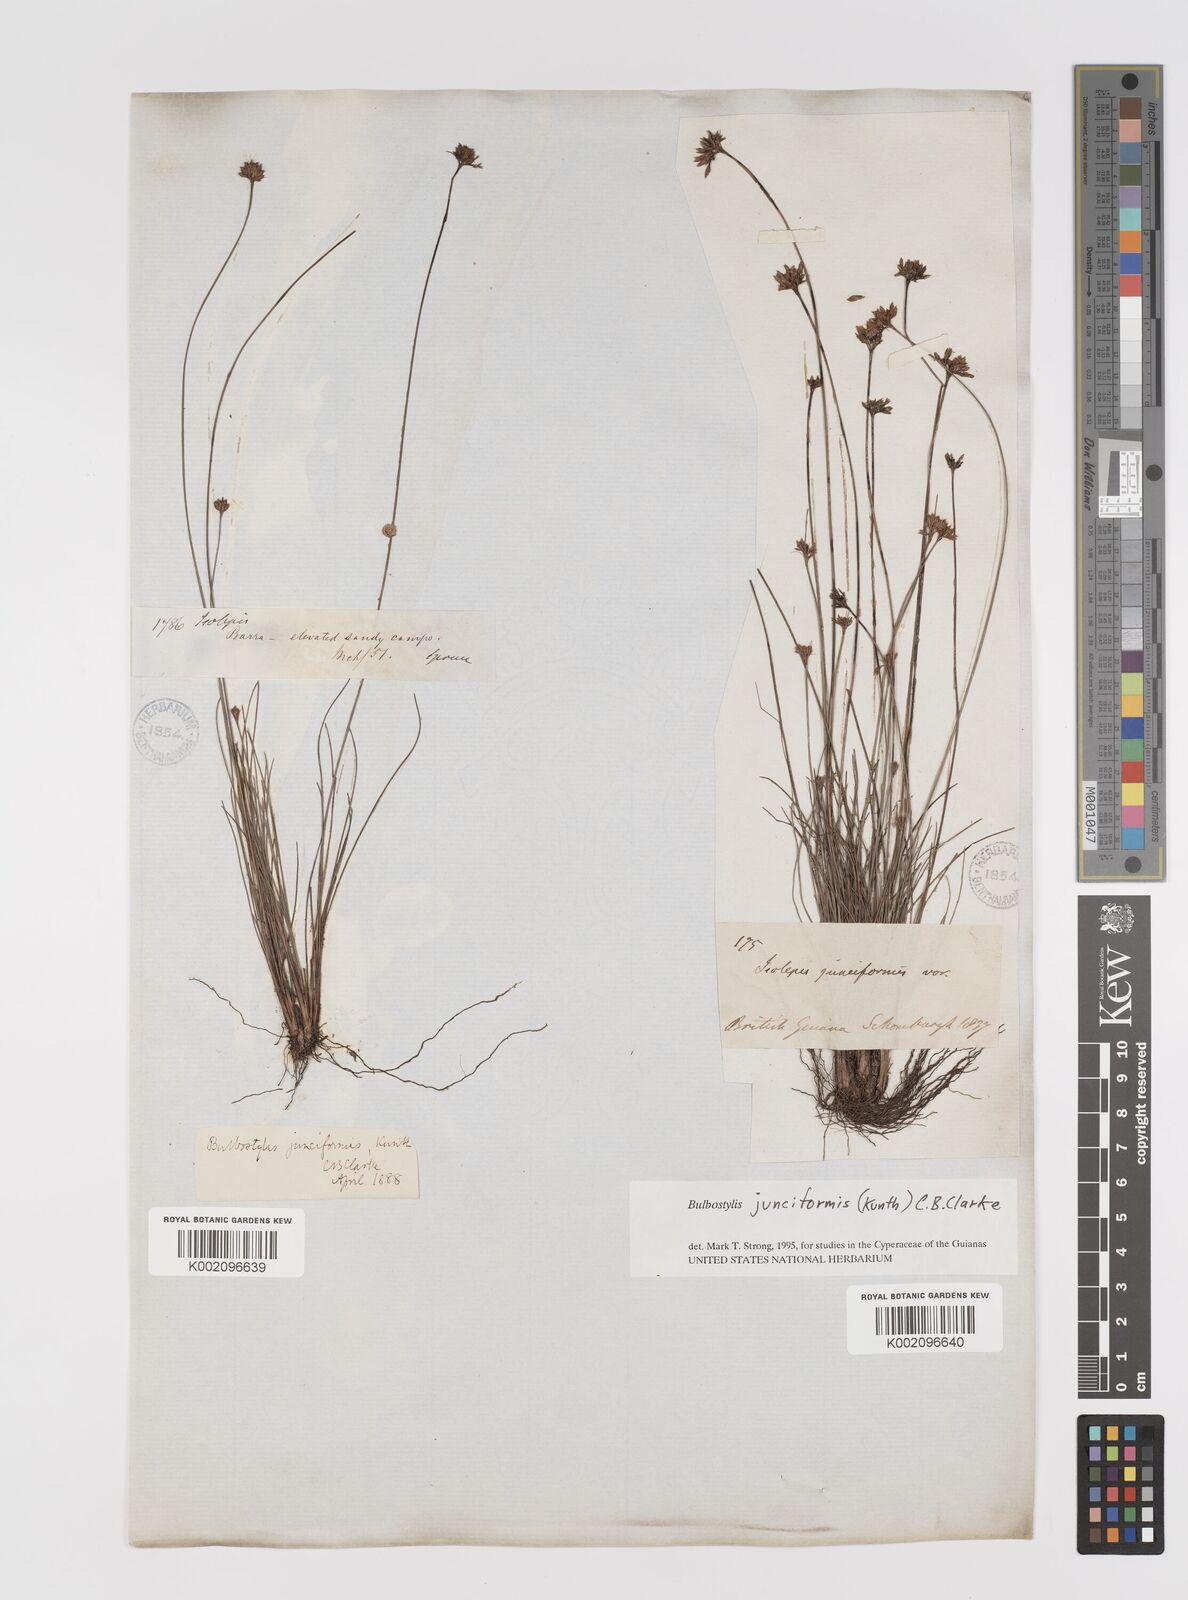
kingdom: Plantae
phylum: Tracheophyta
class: Liliopsida
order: Poales
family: Cyperaceae
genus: Bulbostylis
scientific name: Bulbostylis junciformis
